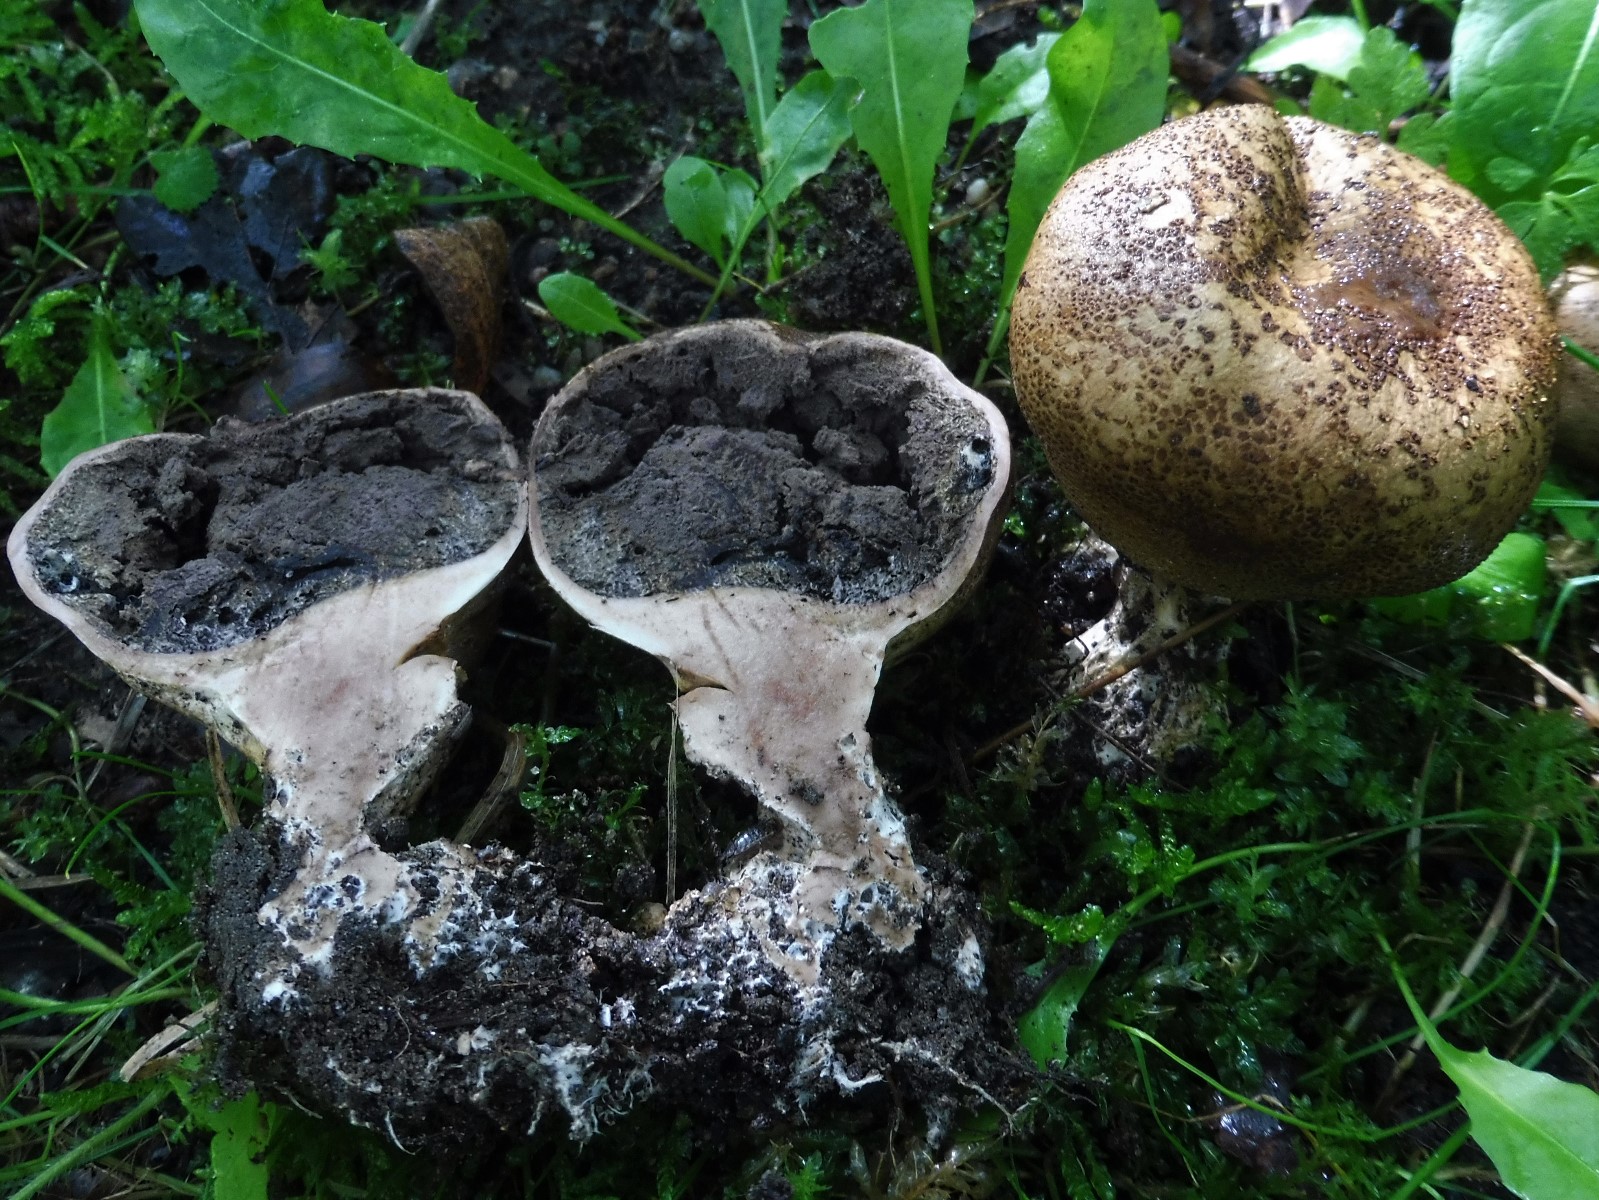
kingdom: Fungi
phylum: Basidiomycota
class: Agaricomycetes
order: Boletales
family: Sclerodermataceae
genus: Scleroderma
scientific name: Scleroderma verrucosum
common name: stilket bruskbold
